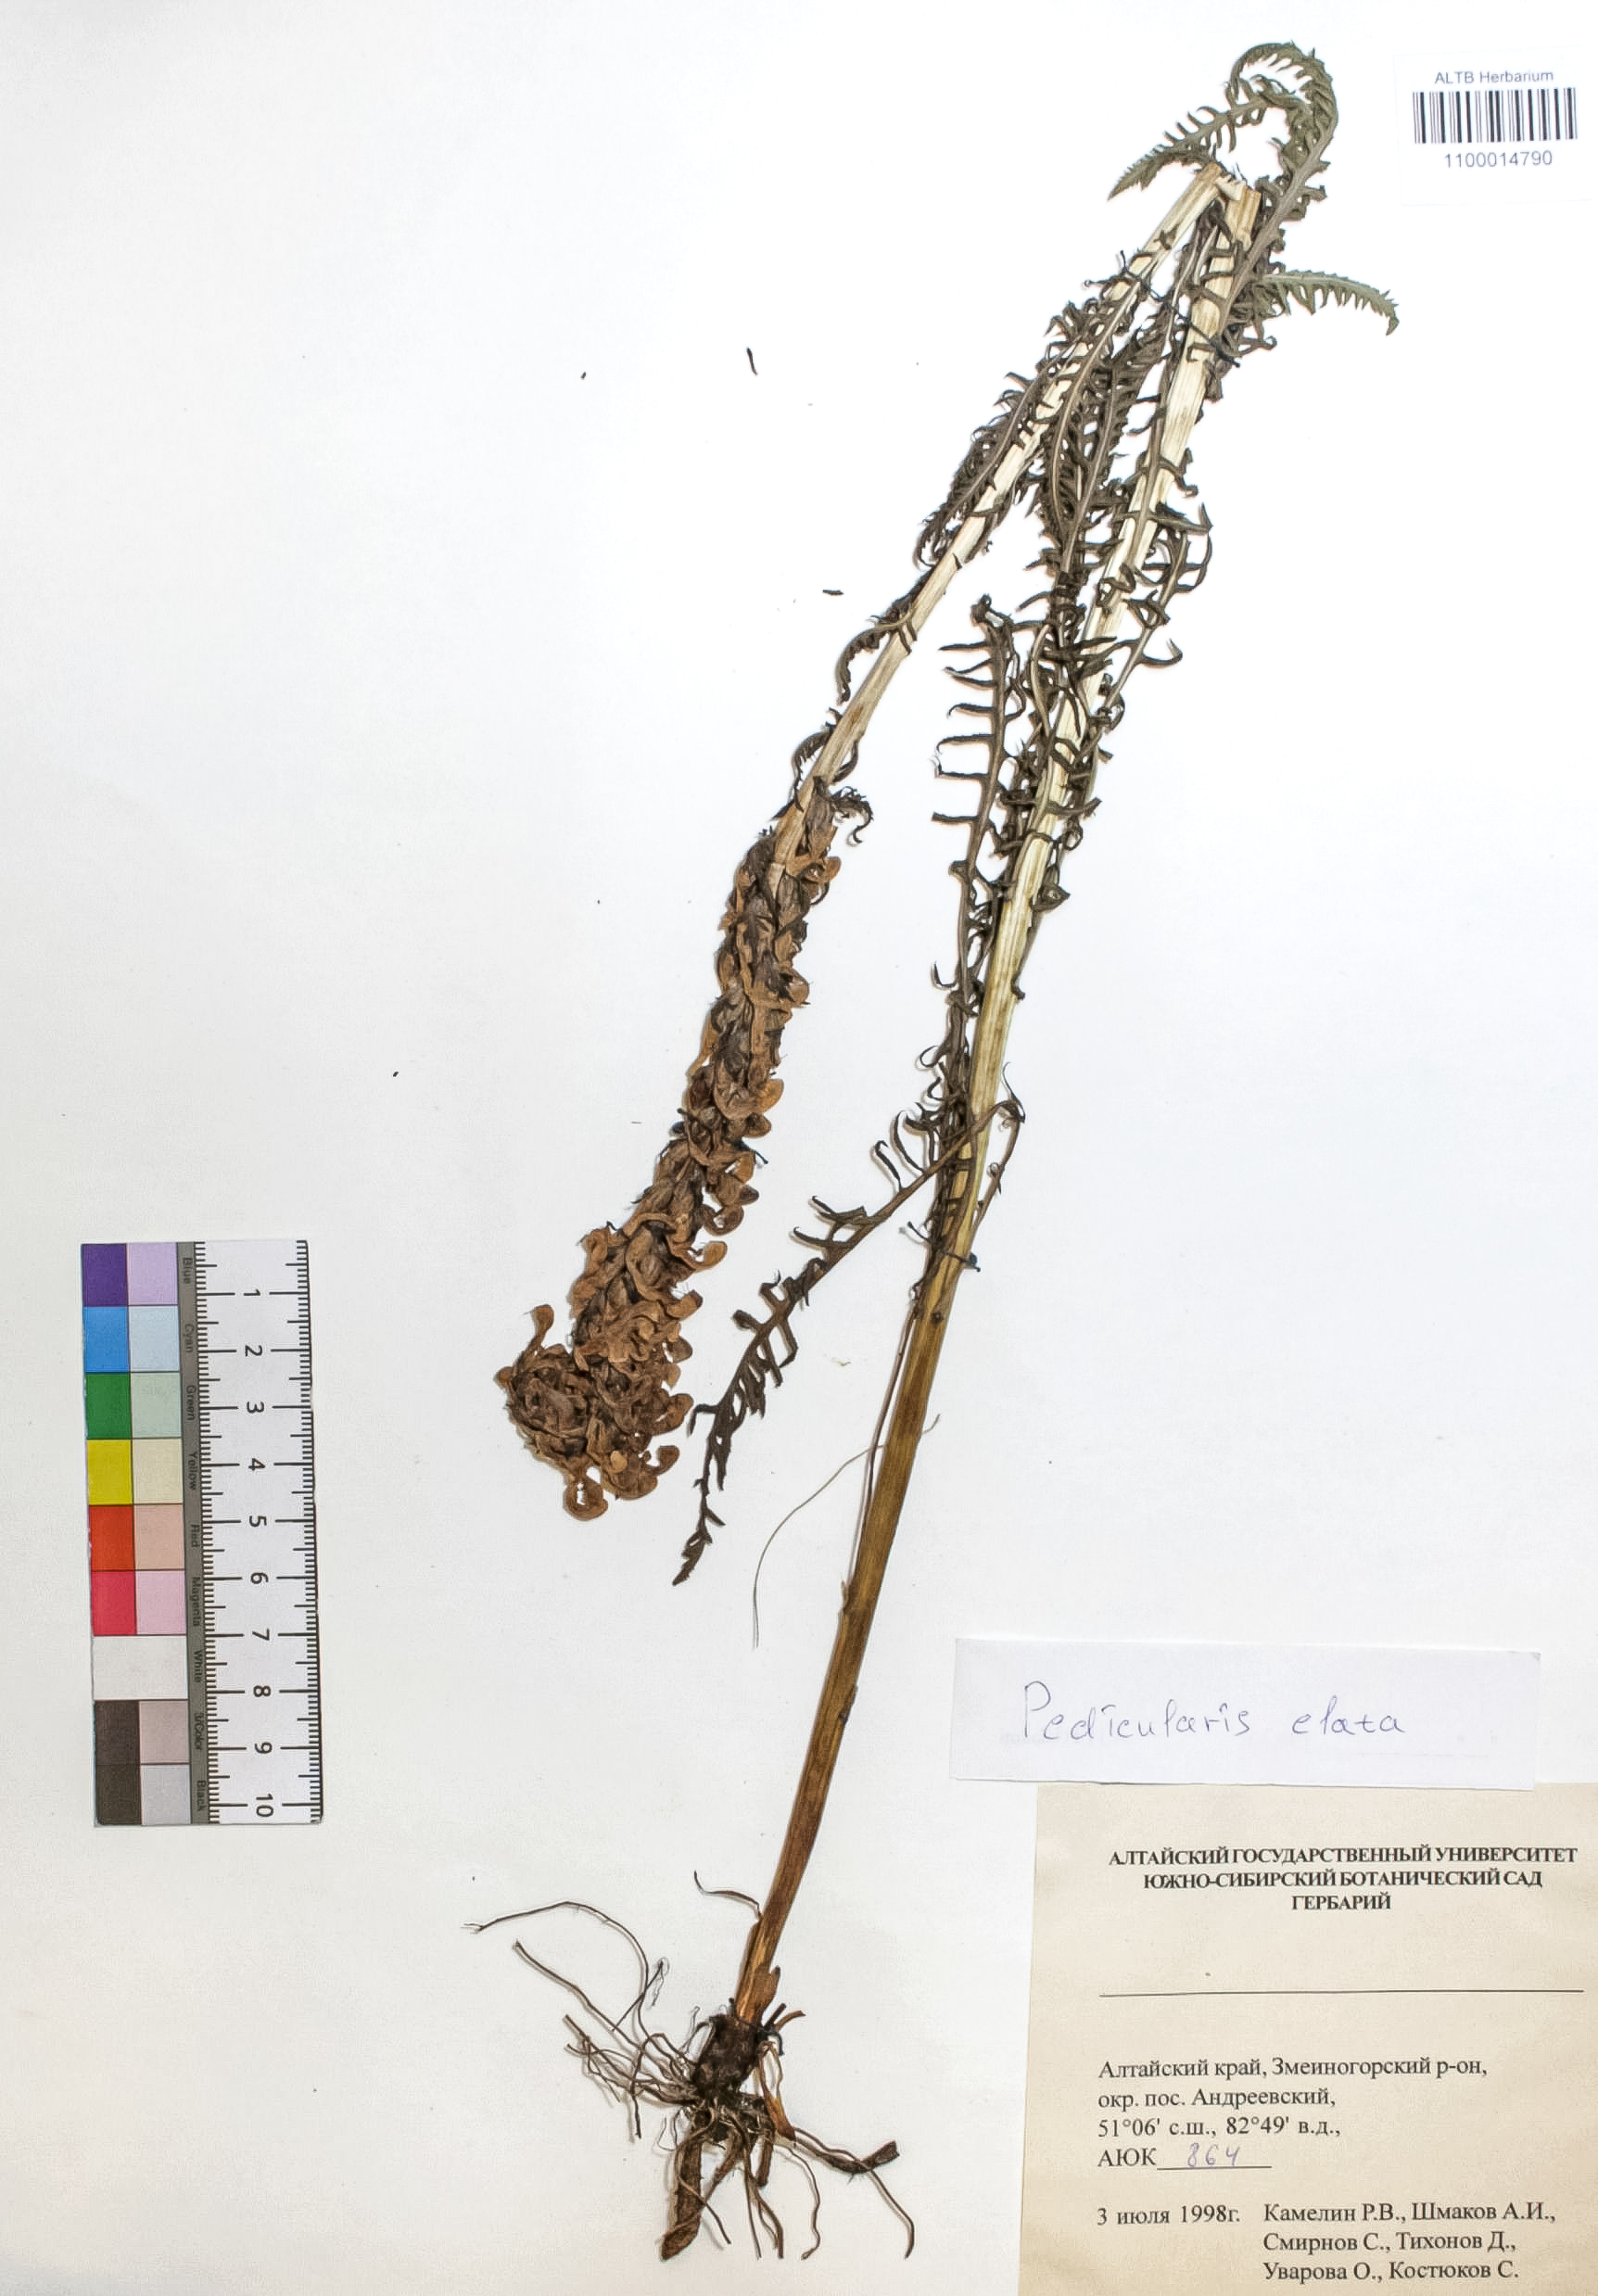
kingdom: Plantae
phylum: Tracheophyta
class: Magnoliopsida
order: Lamiales
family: Orobanchaceae
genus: Pedicularis
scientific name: Pedicularis elata
